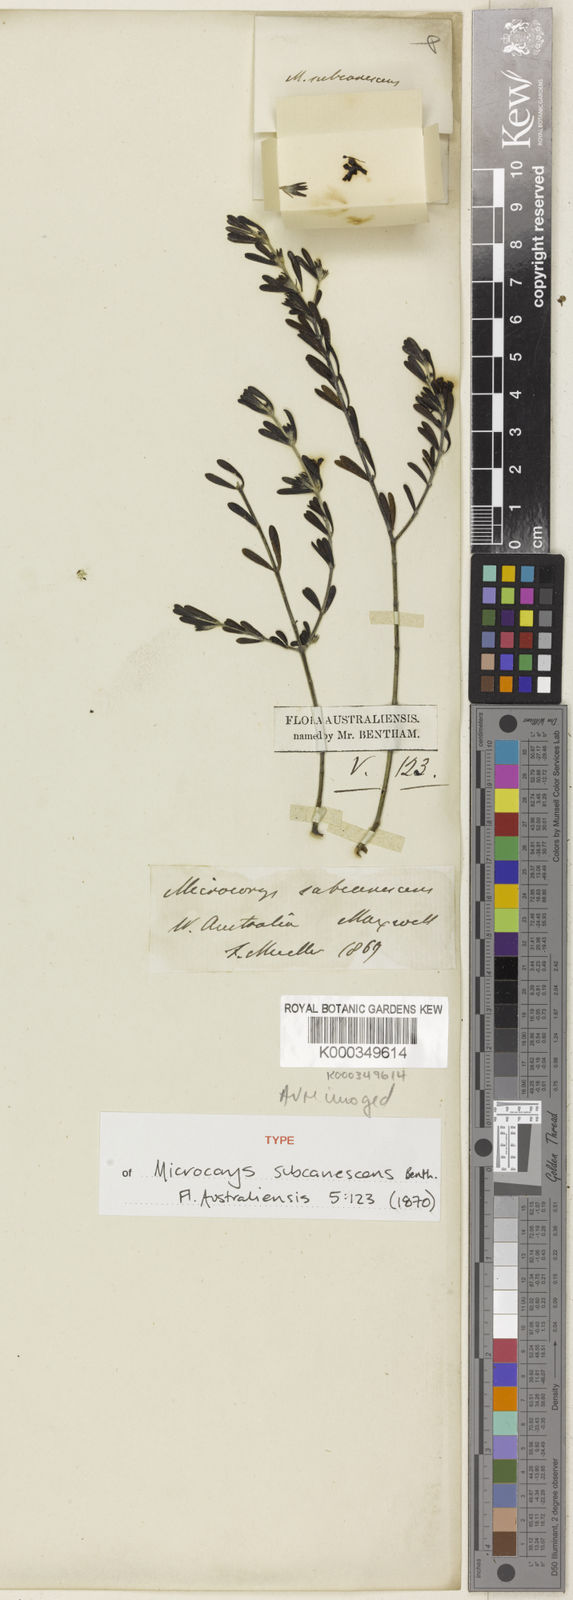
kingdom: Plantae
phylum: Tracheophyta
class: Magnoliopsida
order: Lamiales
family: Lamiaceae
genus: Microcorys
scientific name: Microcorys subcanescens
